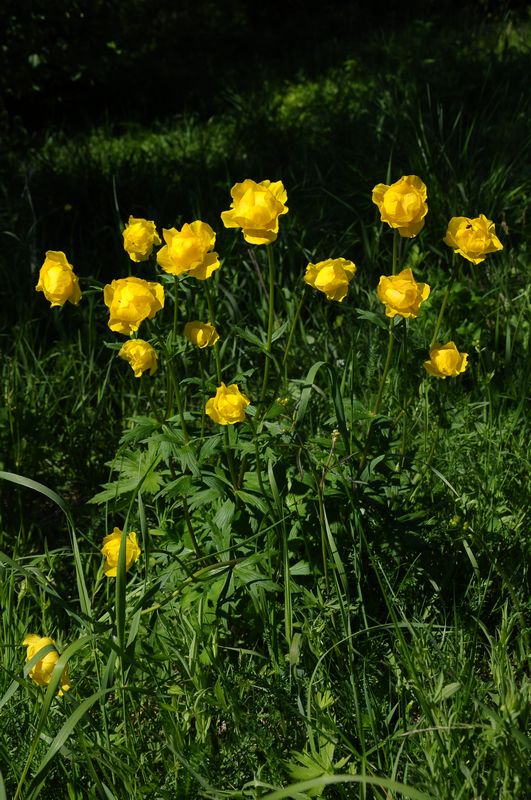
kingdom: Plantae
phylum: Tracheophyta
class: Magnoliopsida
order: Ranunculales
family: Ranunculaceae
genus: Trollius
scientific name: Trollius europaeus
